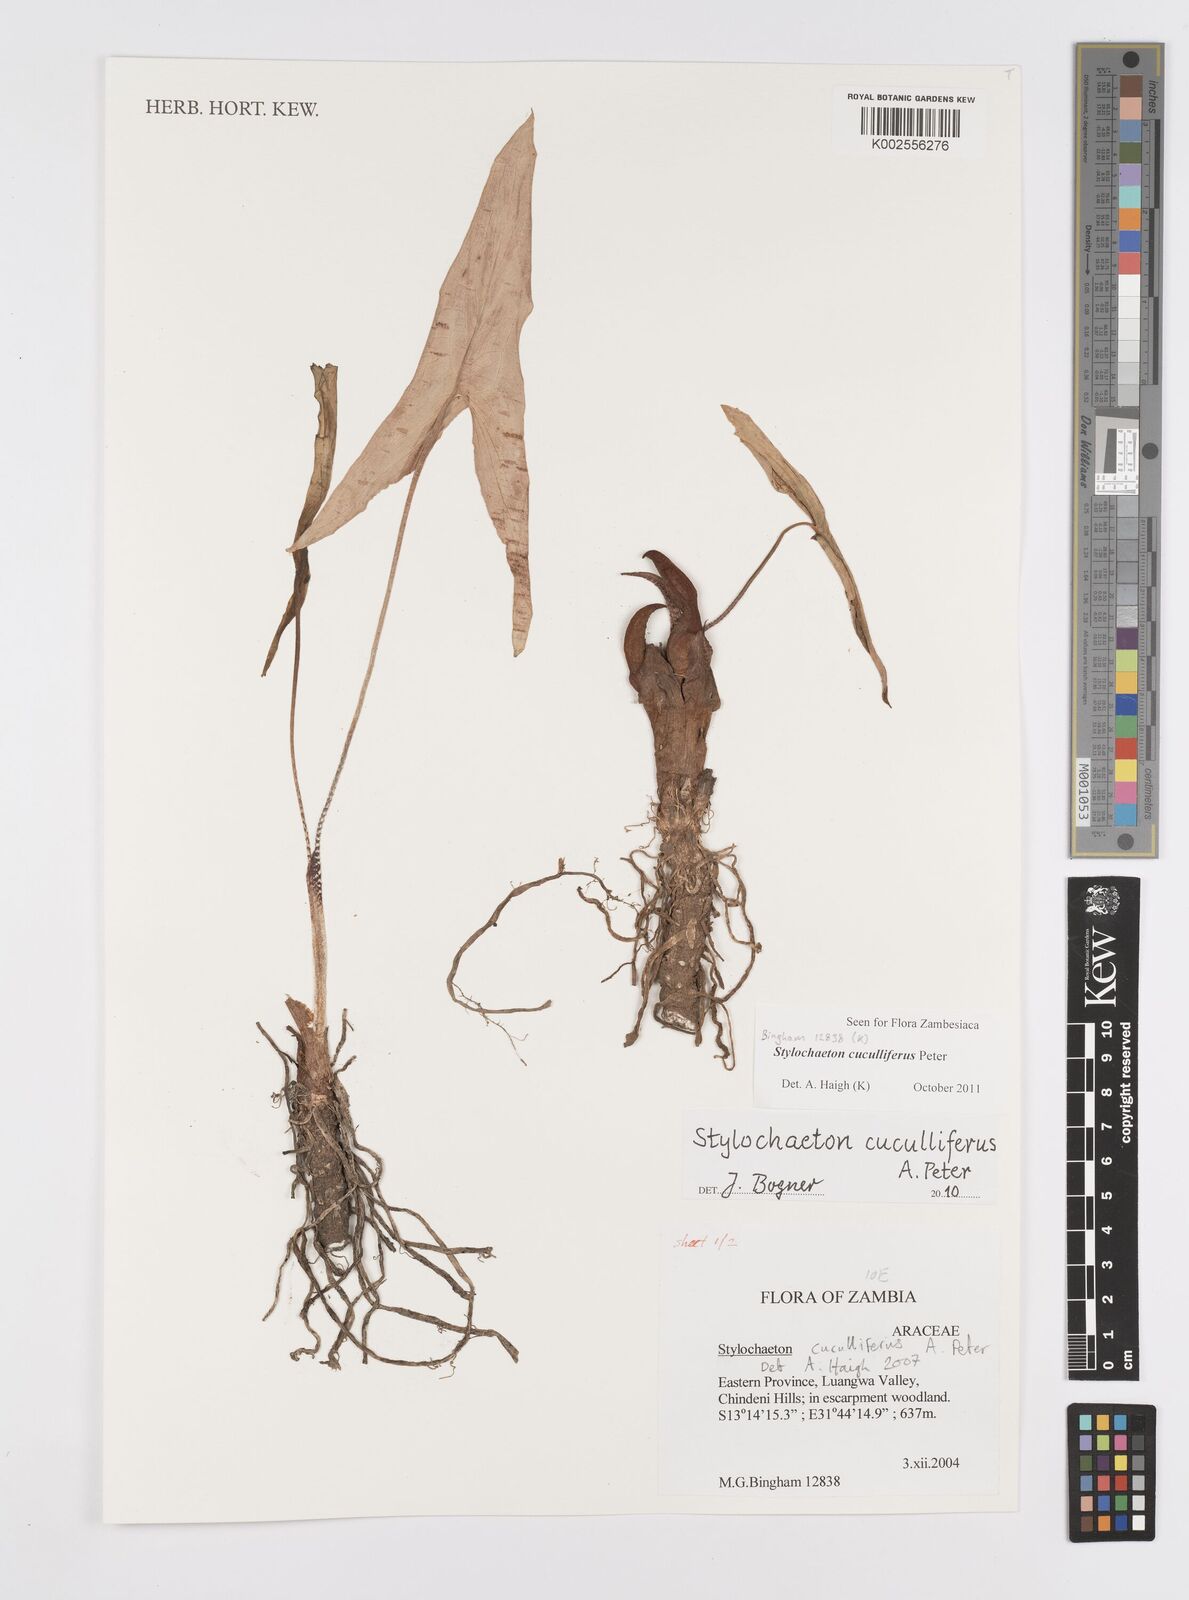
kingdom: Plantae
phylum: Tracheophyta
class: Liliopsida
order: Alismatales
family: Araceae
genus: Stylochaeton
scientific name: Stylochaeton cuculliferum
